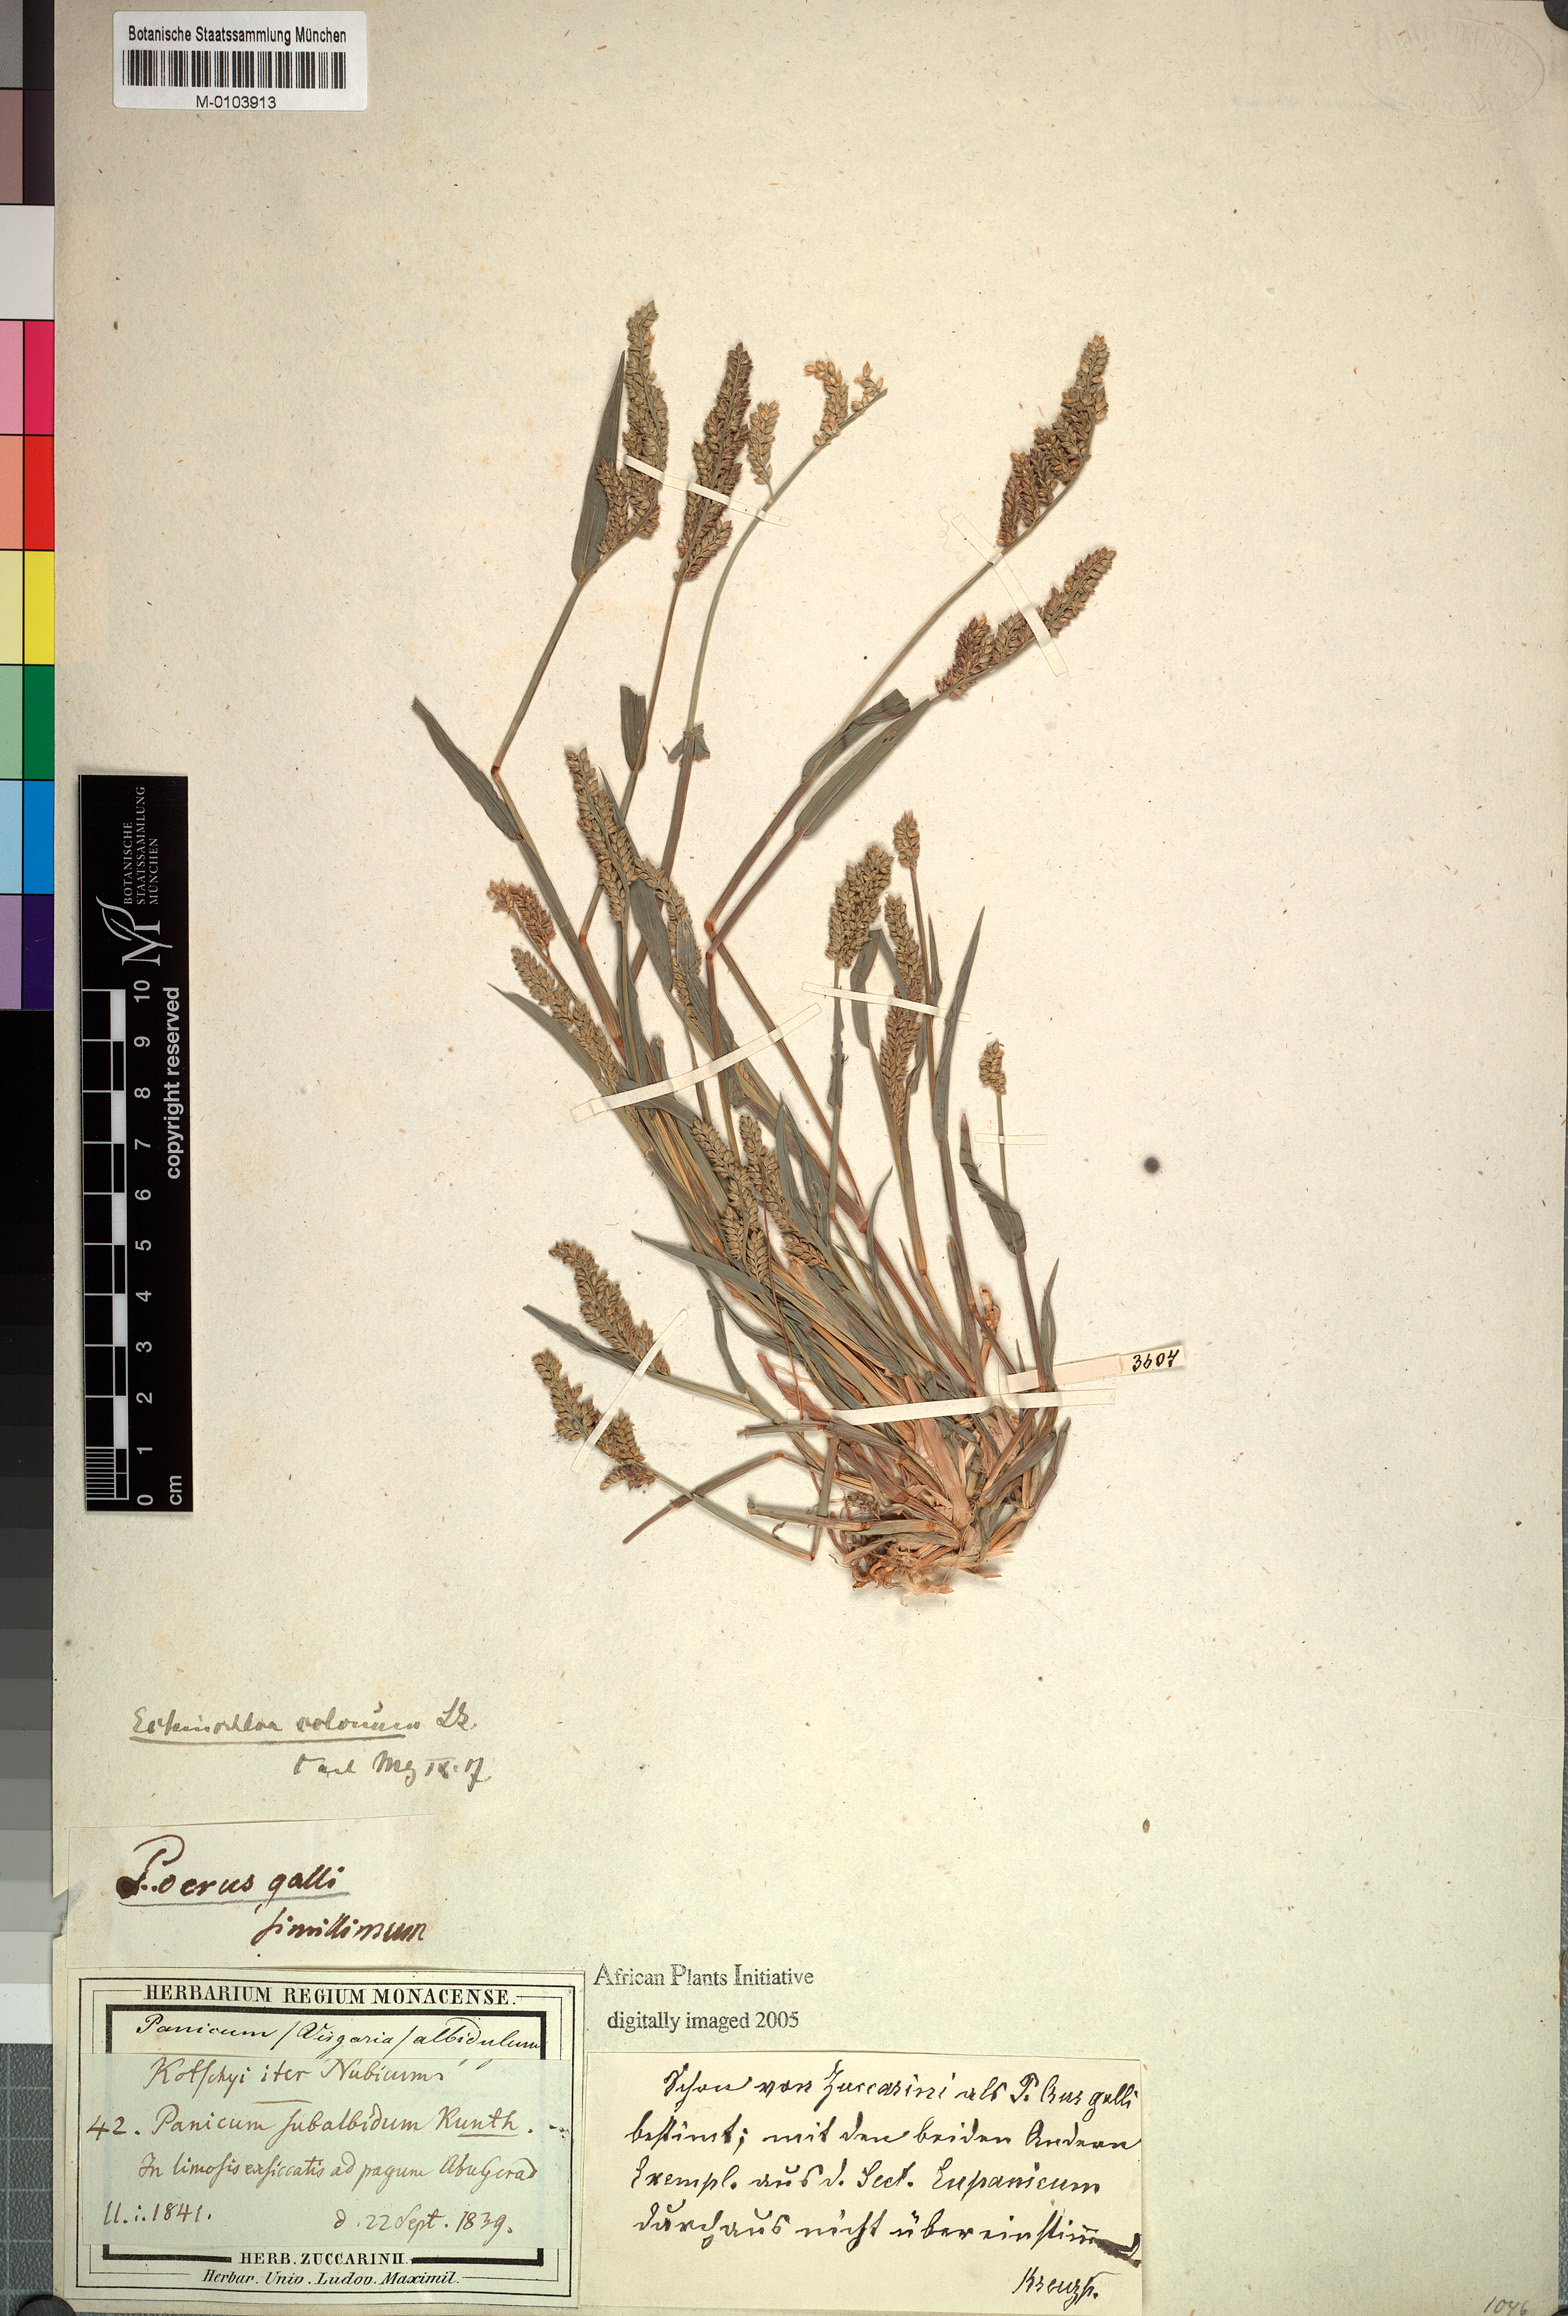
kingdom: Plantae
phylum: Tracheophyta
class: Liliopsida
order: Poales
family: Poaceae
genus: Panicum
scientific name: Panicum laetum
